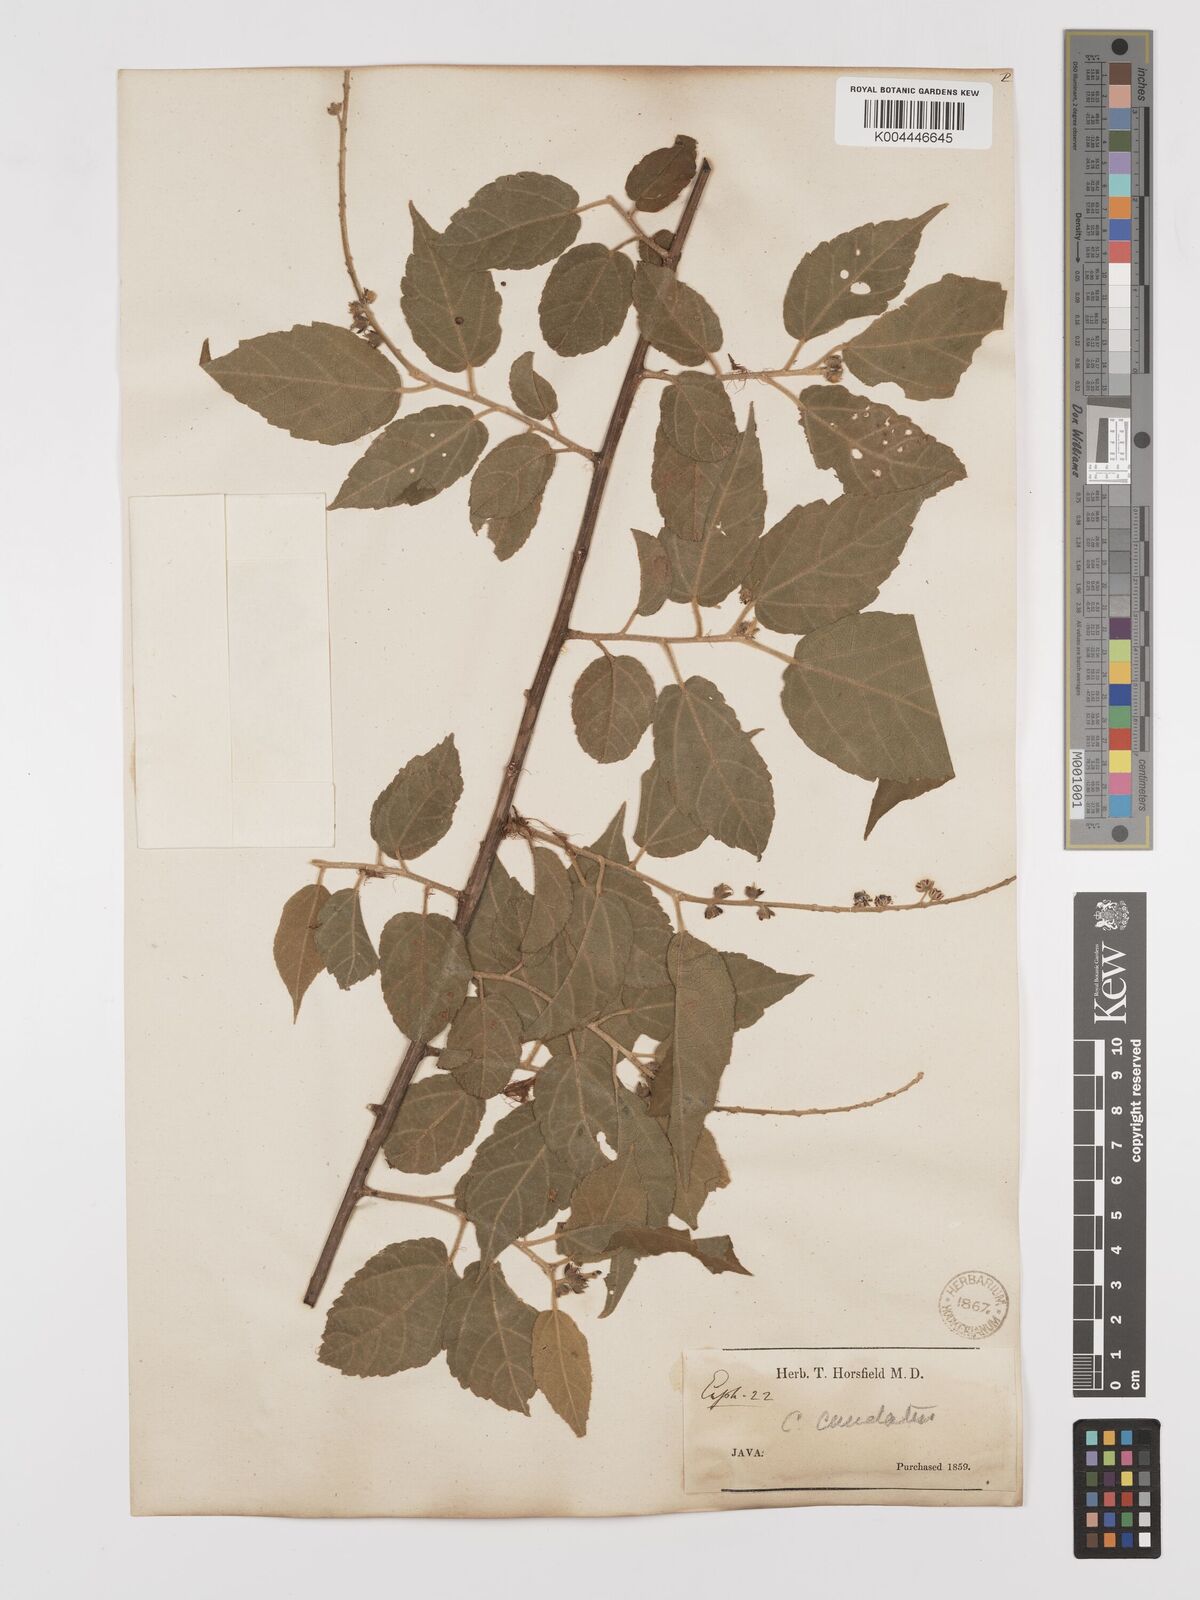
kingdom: Plantae
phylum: Tracheophyta
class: Magnoliopsida
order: Malpighiales
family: Euphorbiaceae
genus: Croton
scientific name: Croton caudatus
